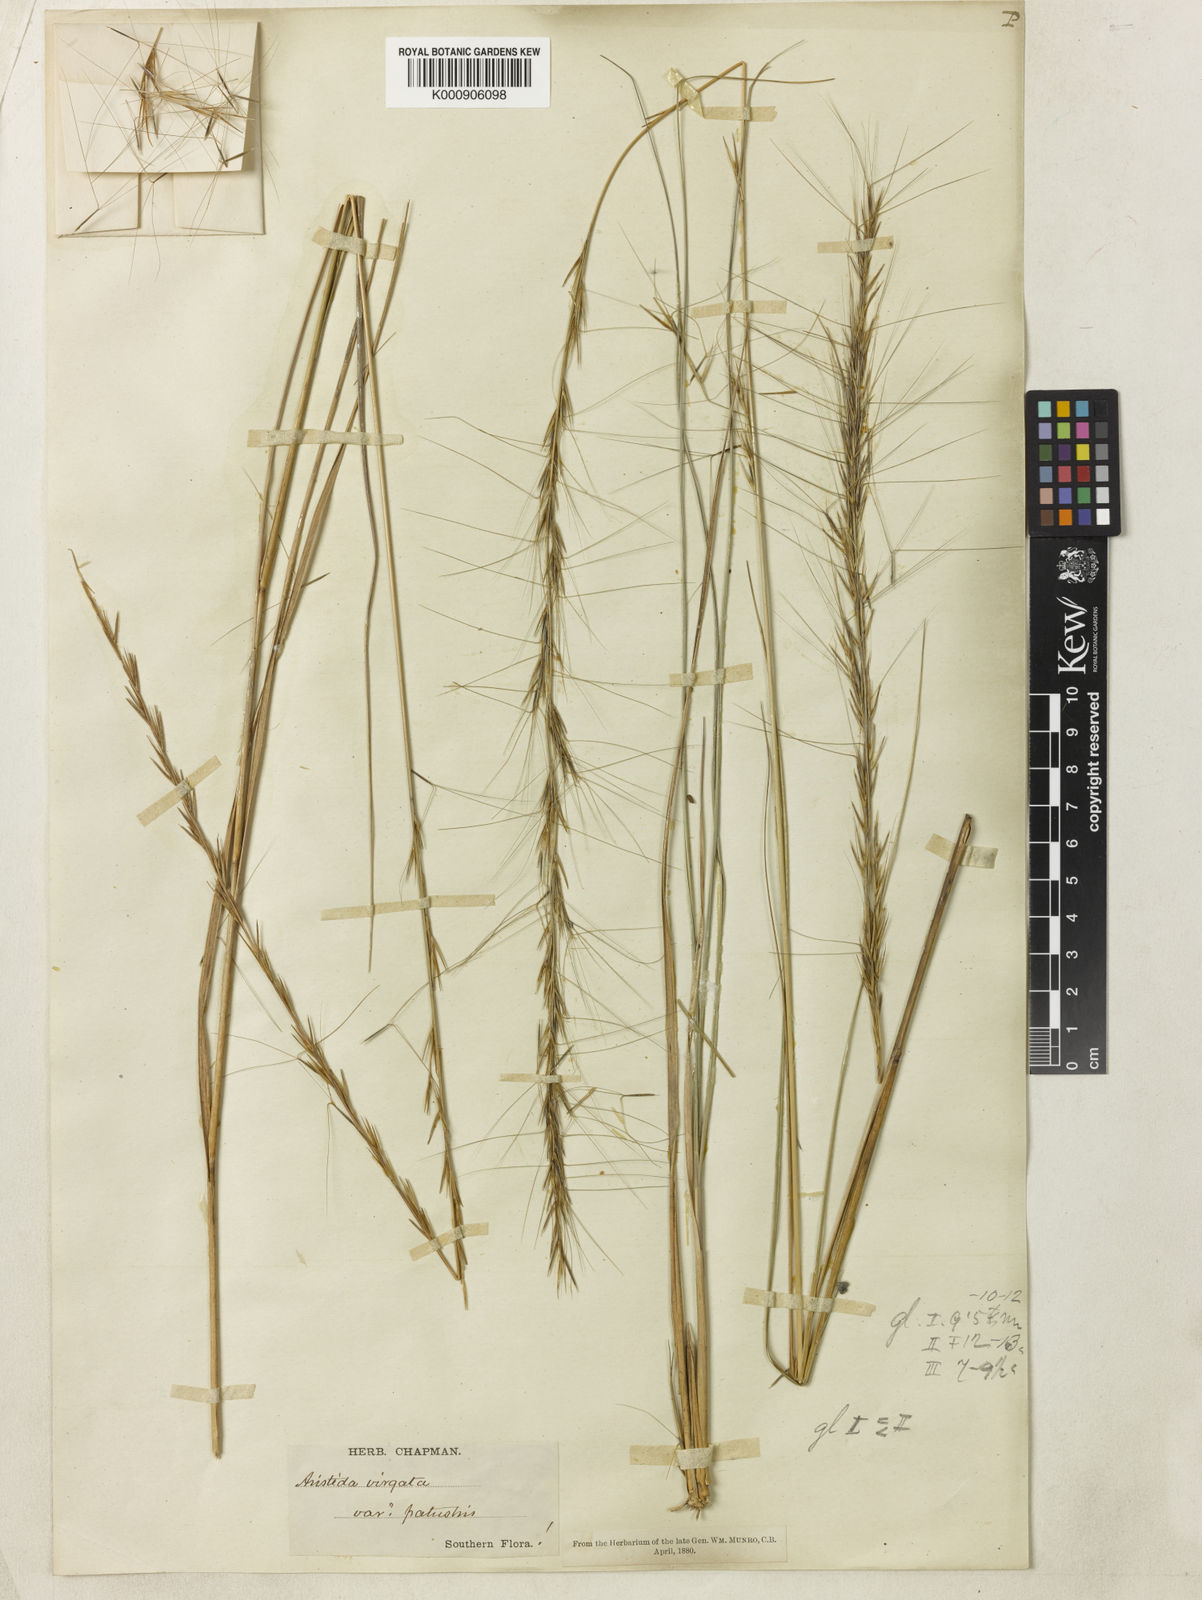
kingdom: Plantae
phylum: Tracheophyta
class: Liliopsida
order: Poales
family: Poaceae
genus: Aristida
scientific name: Aristida palustris
